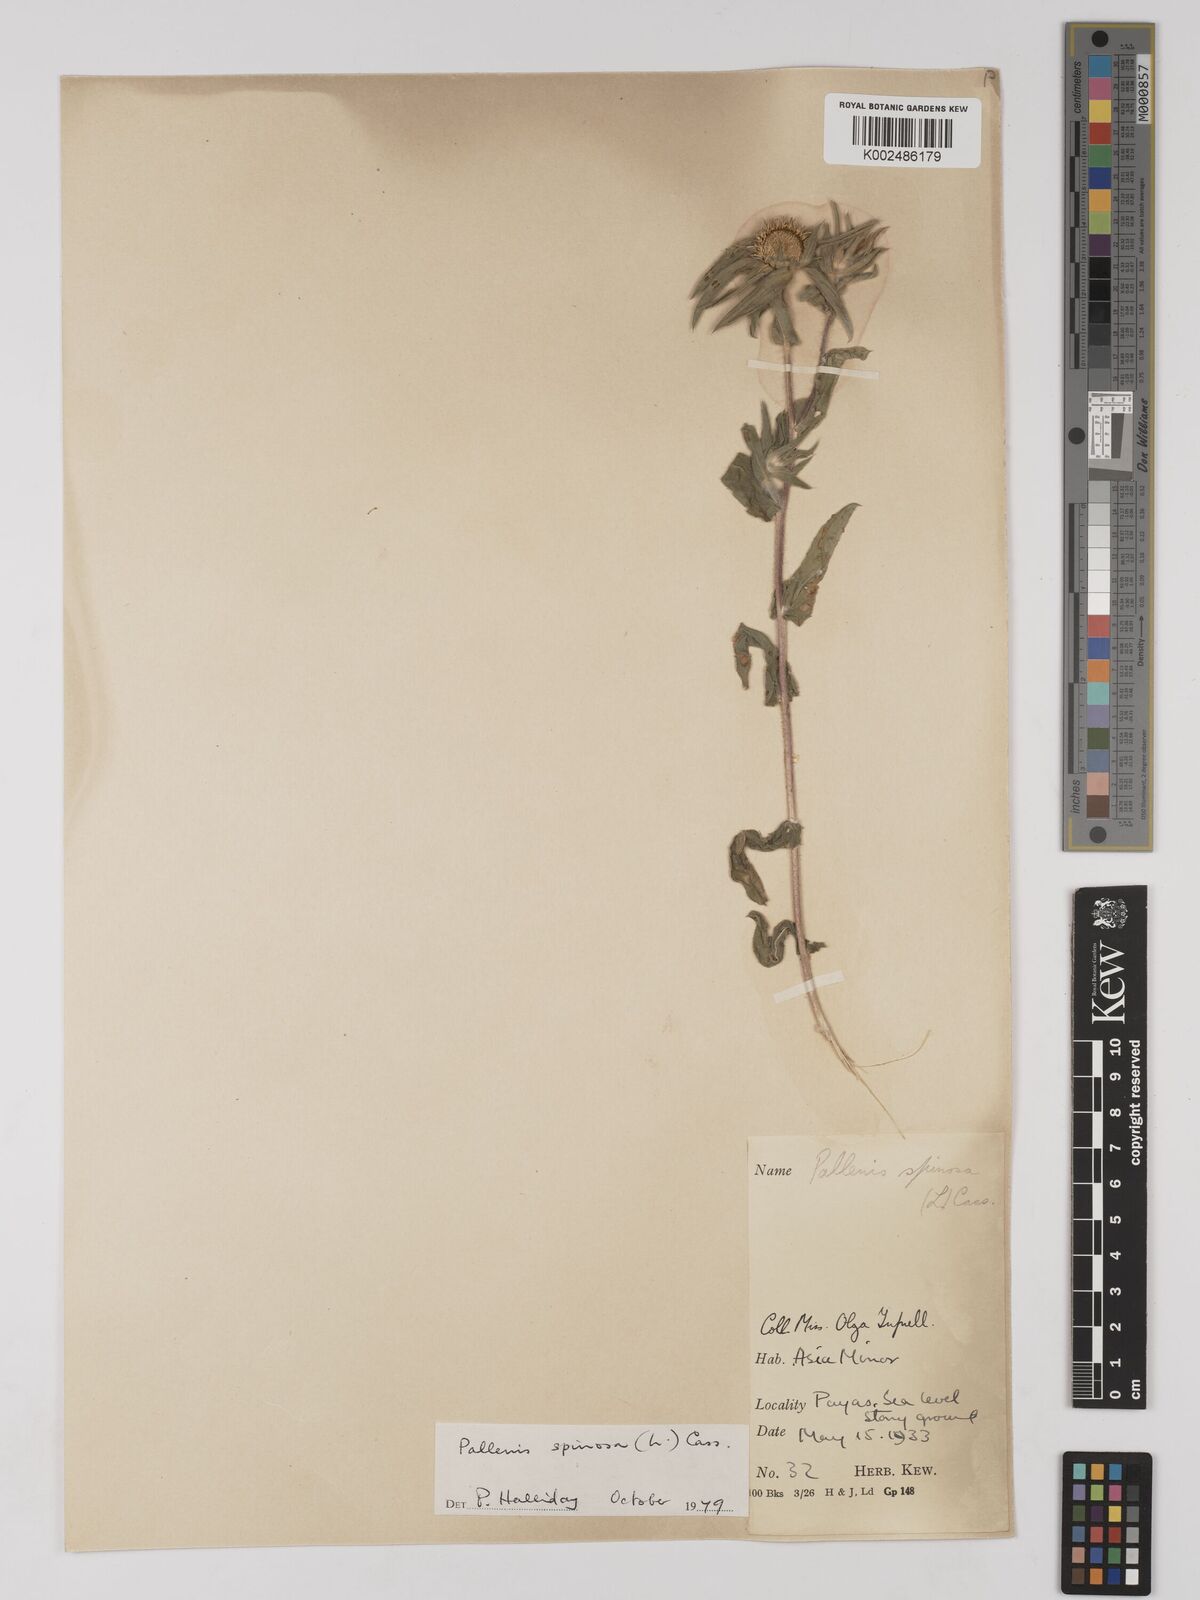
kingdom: Plantae
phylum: Tracheophyta
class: Magnoliopsida
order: Asterales
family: Asteraceae
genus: Pallenis
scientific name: Pallenis spinosa
